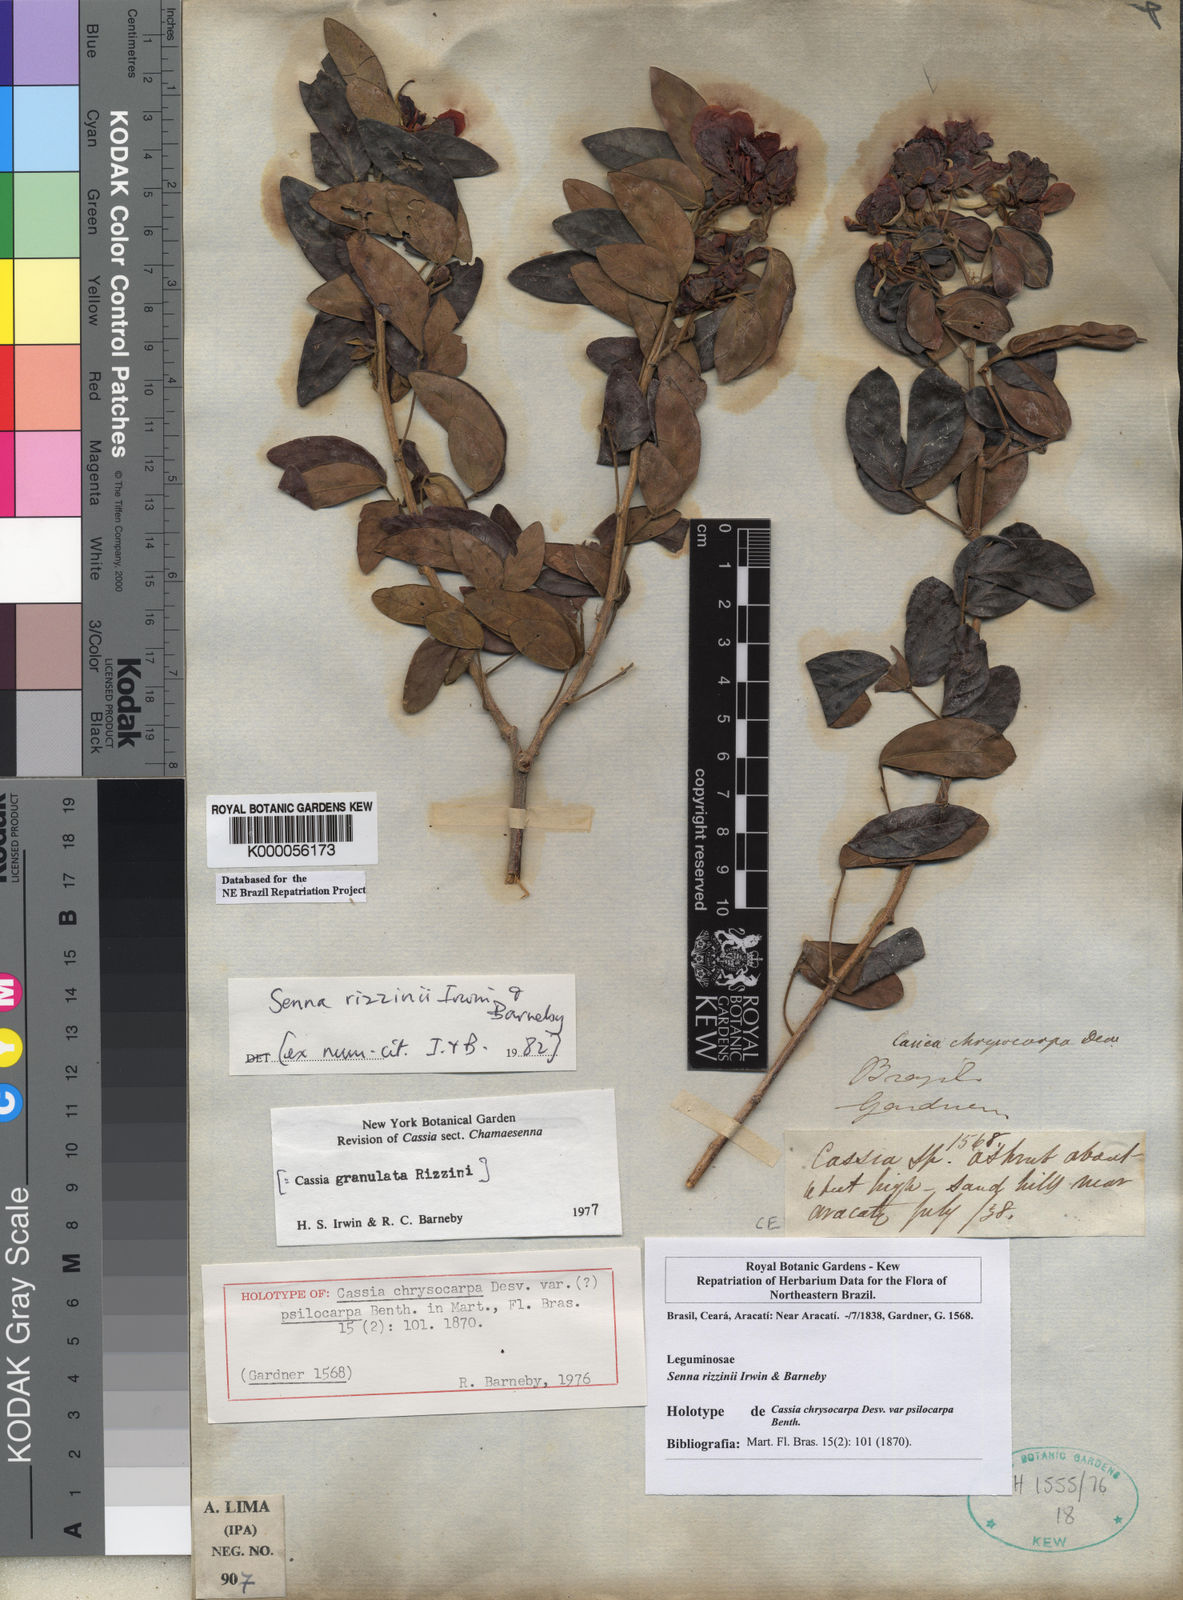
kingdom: Plantae
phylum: Tracheophyta
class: Magnoliopsida
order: Fabales
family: Fabaceae
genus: Senna
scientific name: Senna rizzinii
